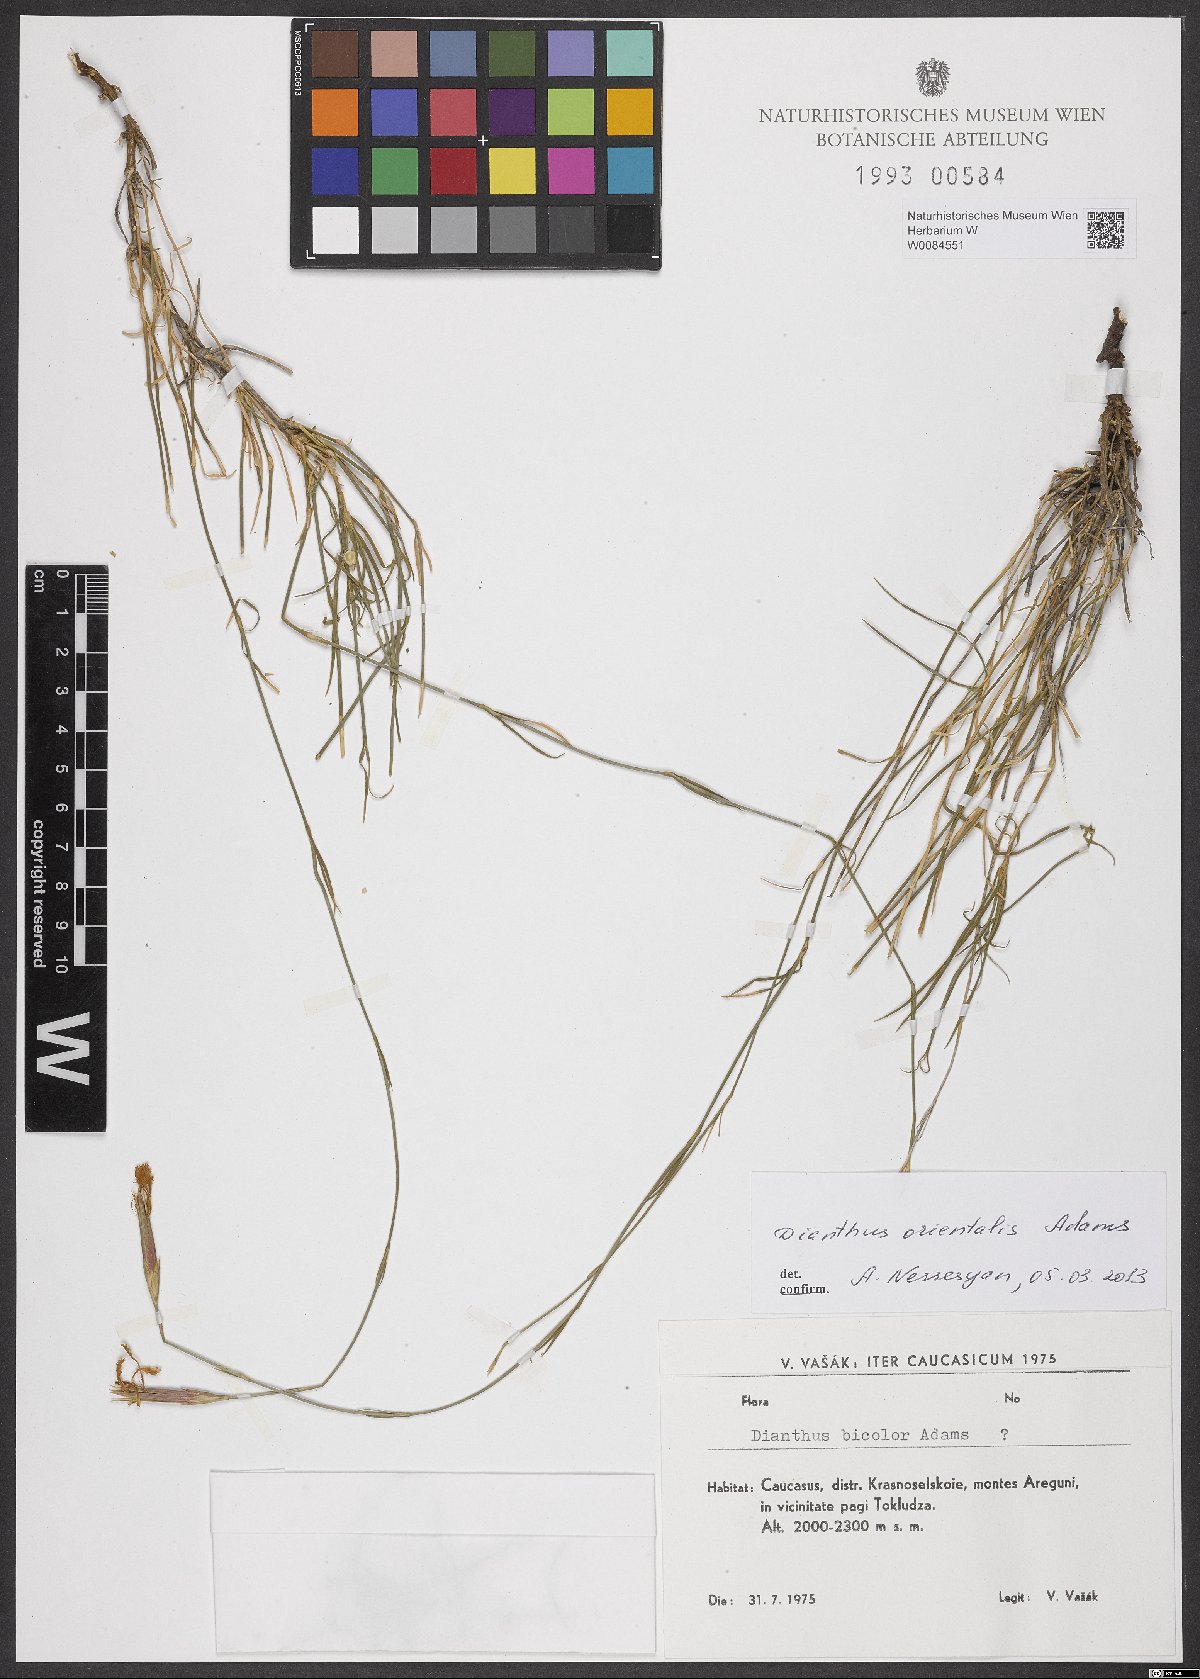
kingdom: Plantae
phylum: Tracheophyta
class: Magnoliopsida
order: Caryophyllales
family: Caryophyllaceae
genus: Dianthus
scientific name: Dianthus orientalis
